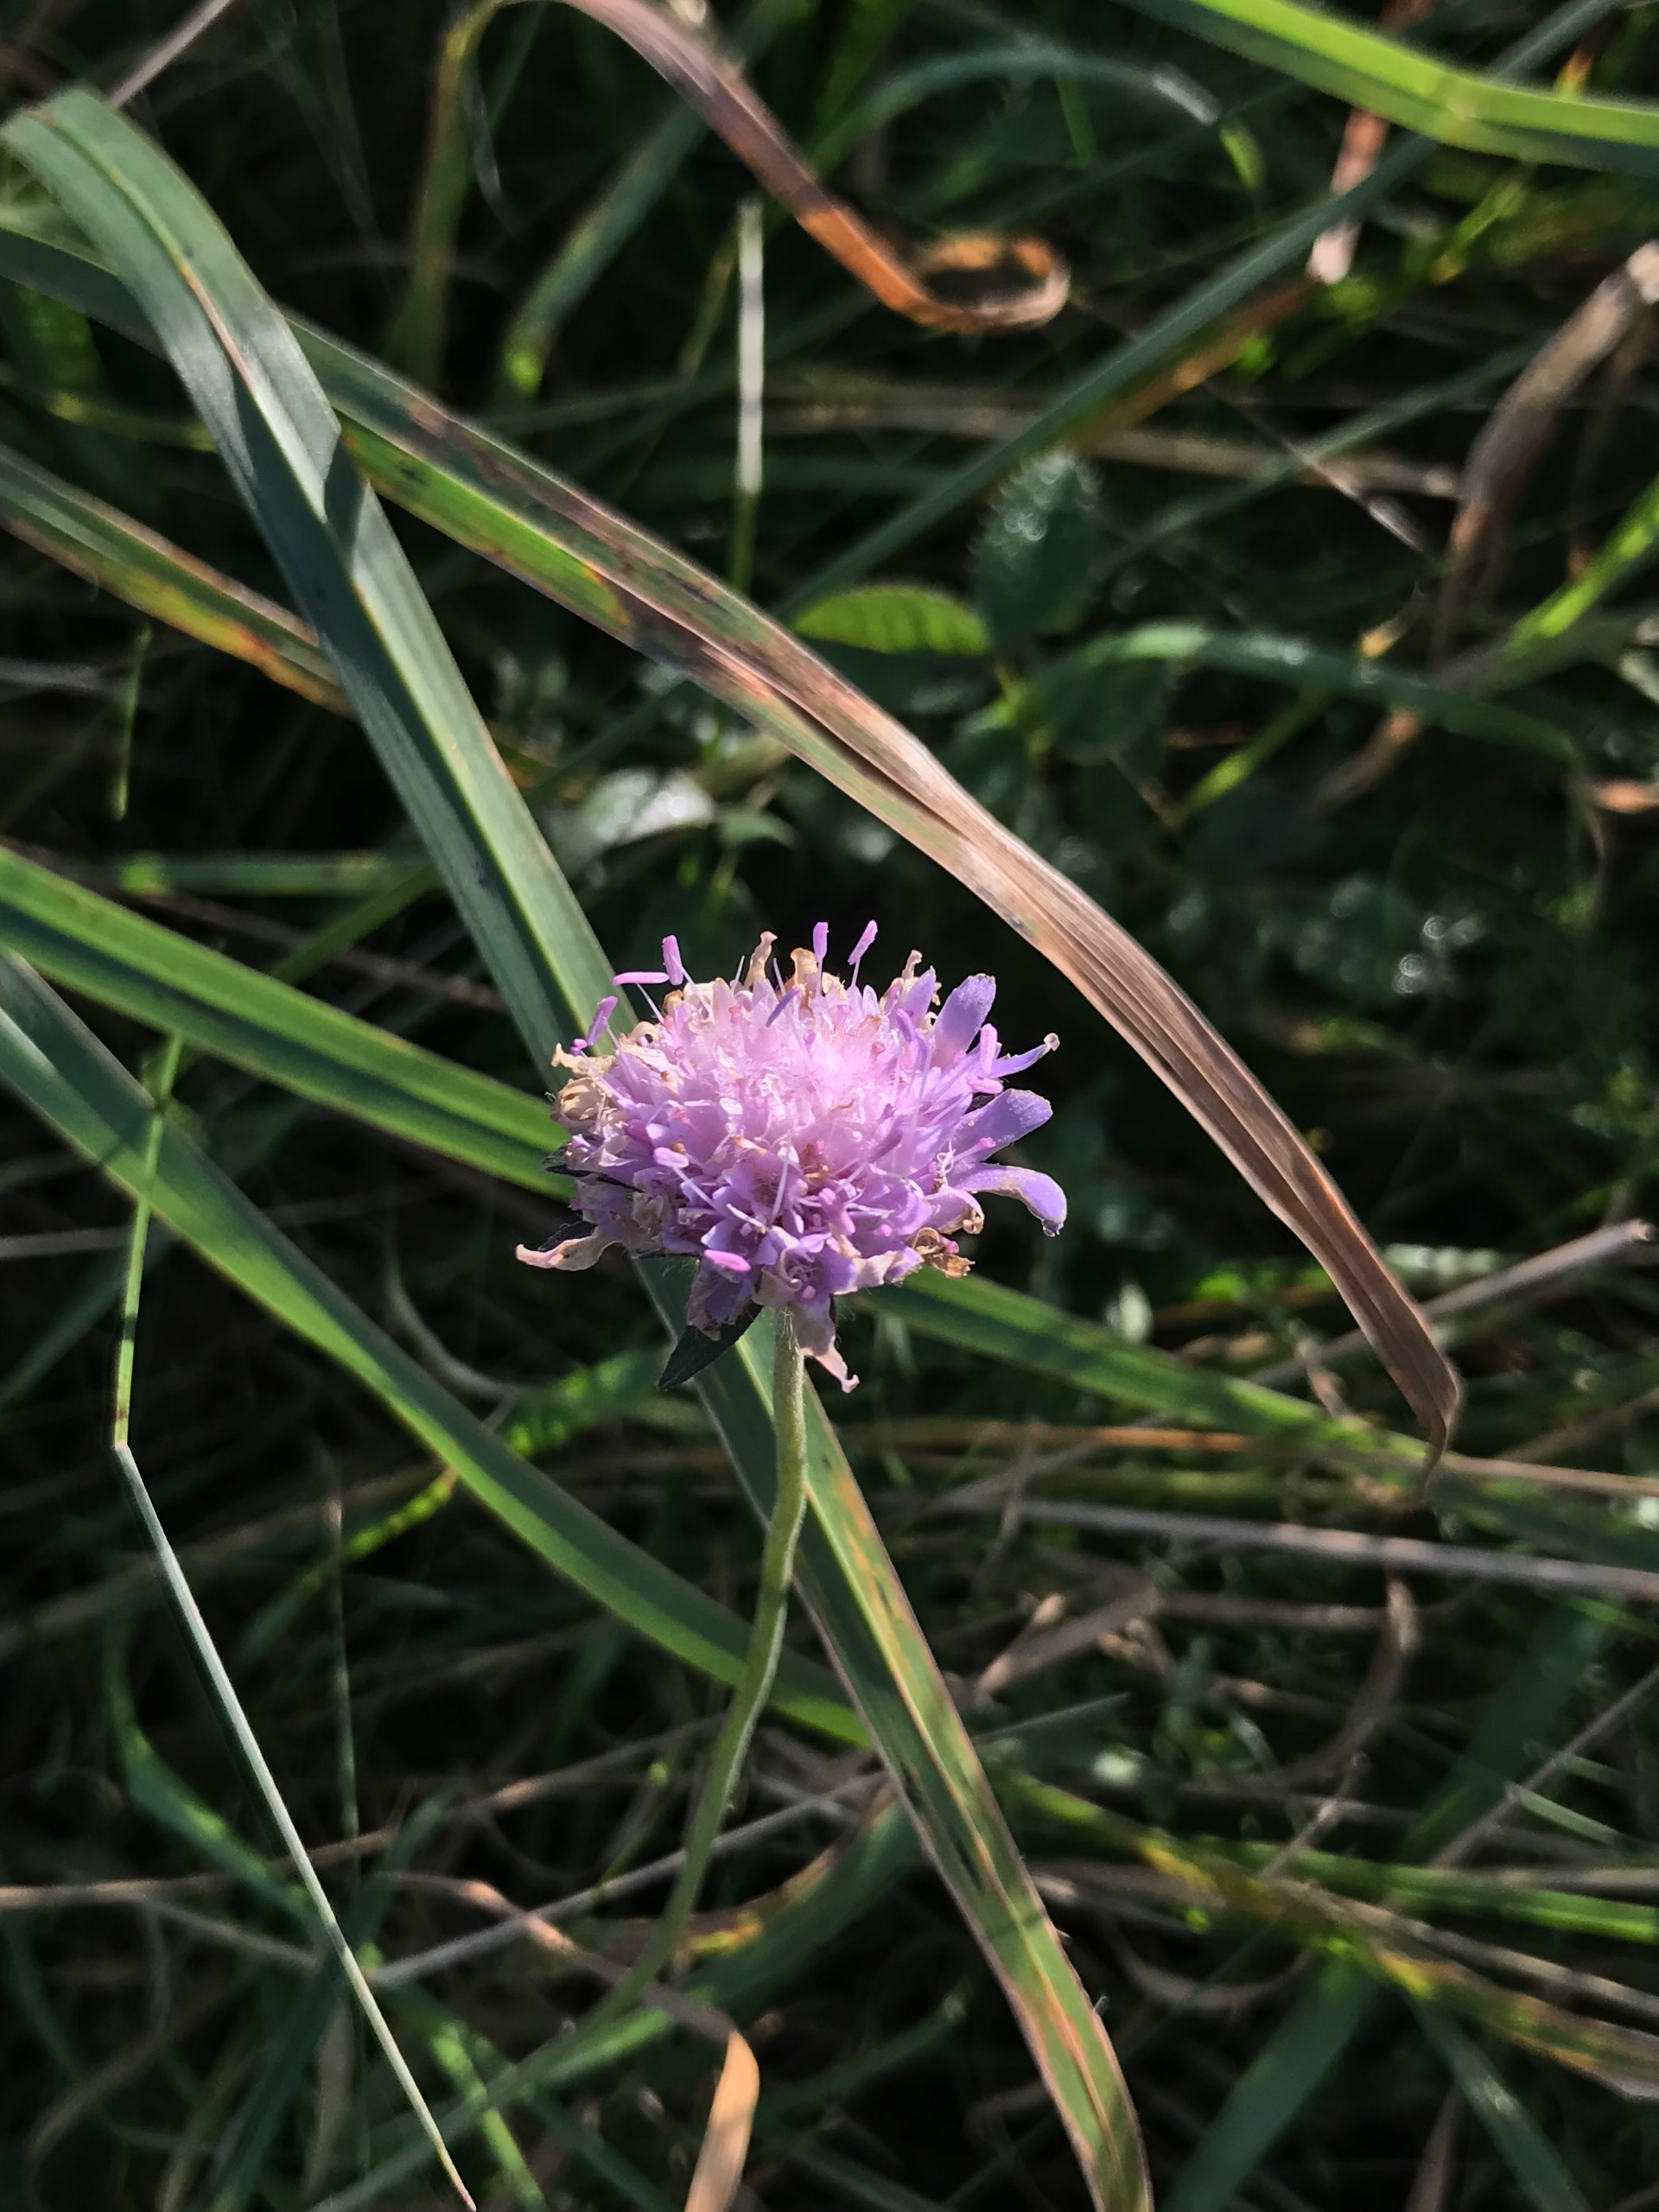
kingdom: Plantae
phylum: Tracheophyta
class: Magnoliopsida
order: Dipsacales
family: Caprifoliaceae
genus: Knautia
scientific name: Knautia arvensis
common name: Blåhat
